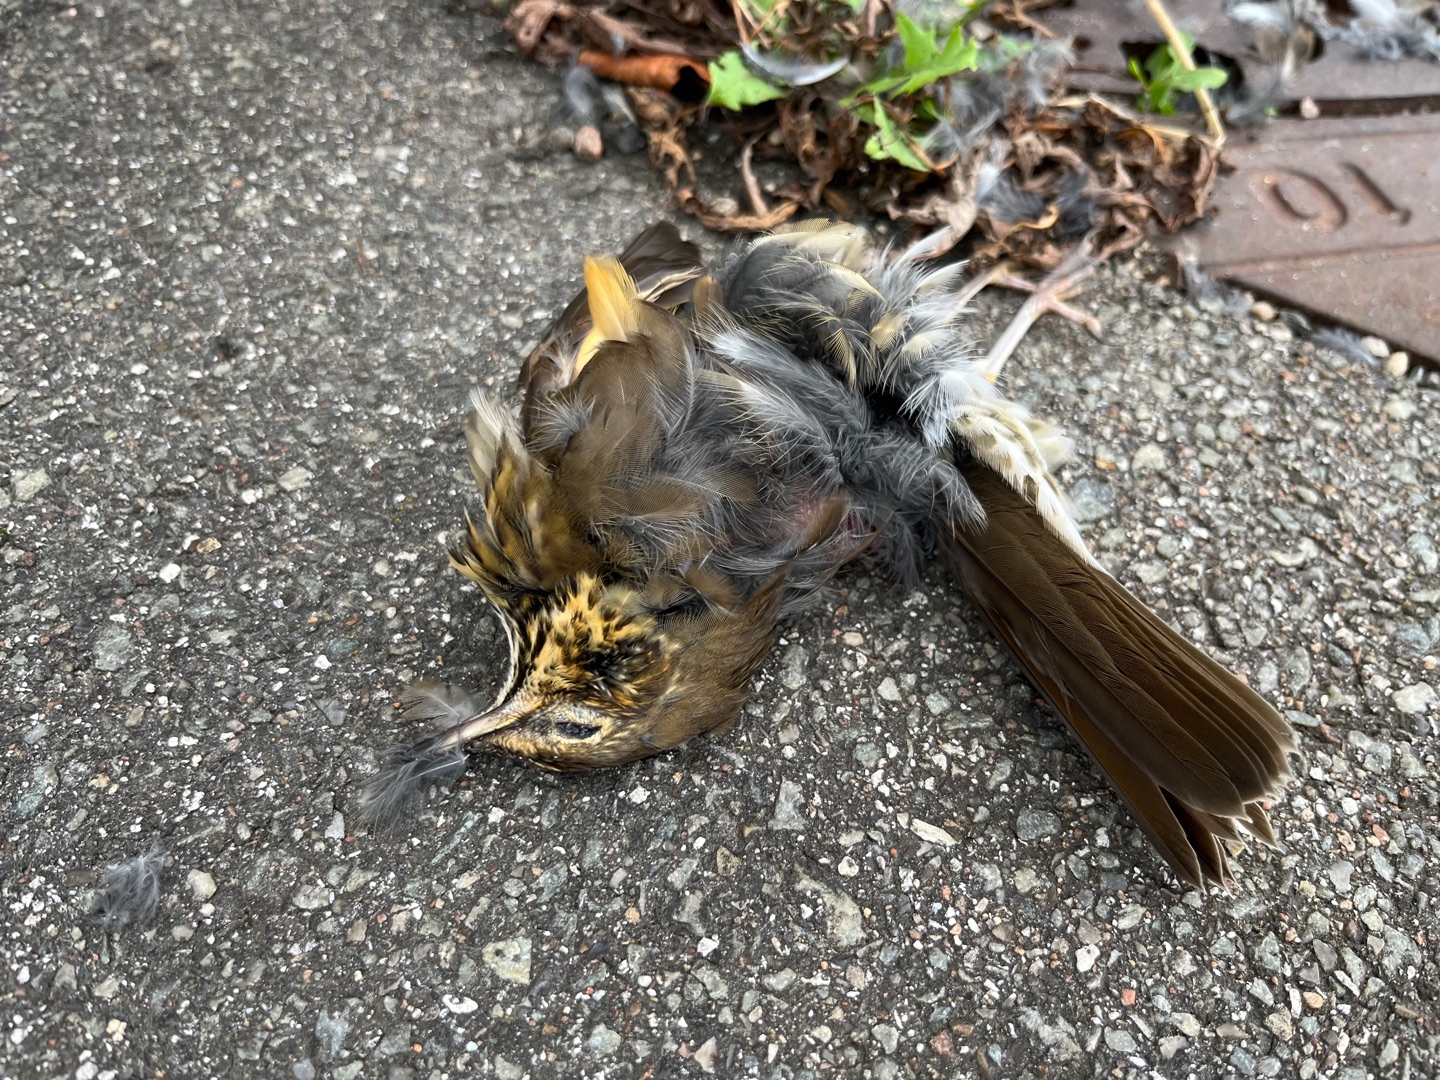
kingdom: Animalia
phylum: Chordata
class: Aves
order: Passeriformes
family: Turdidae
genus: Turdus
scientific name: Turdus philomelos
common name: Sangdrossel
